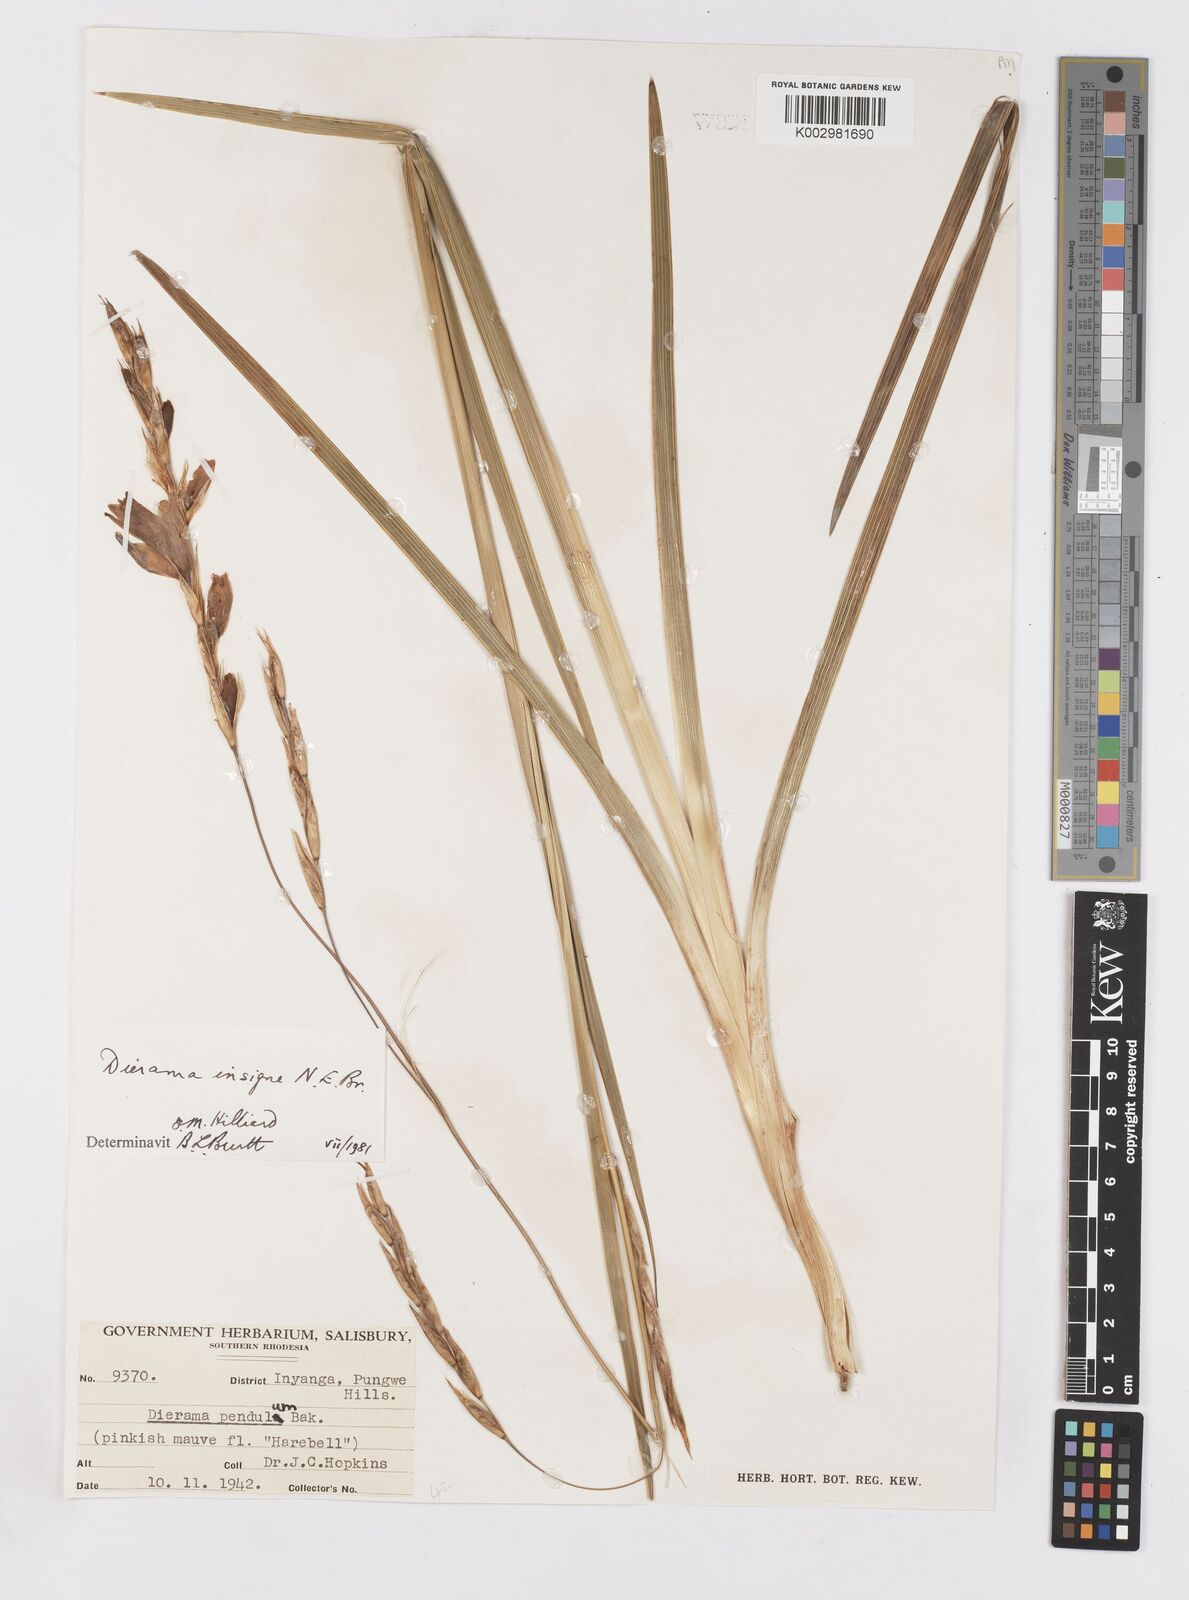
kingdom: Plantae
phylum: Tracheophyta
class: Liliopsida
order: Asparagales
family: Iridaceae
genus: Dierama
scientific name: Dierama insigne
